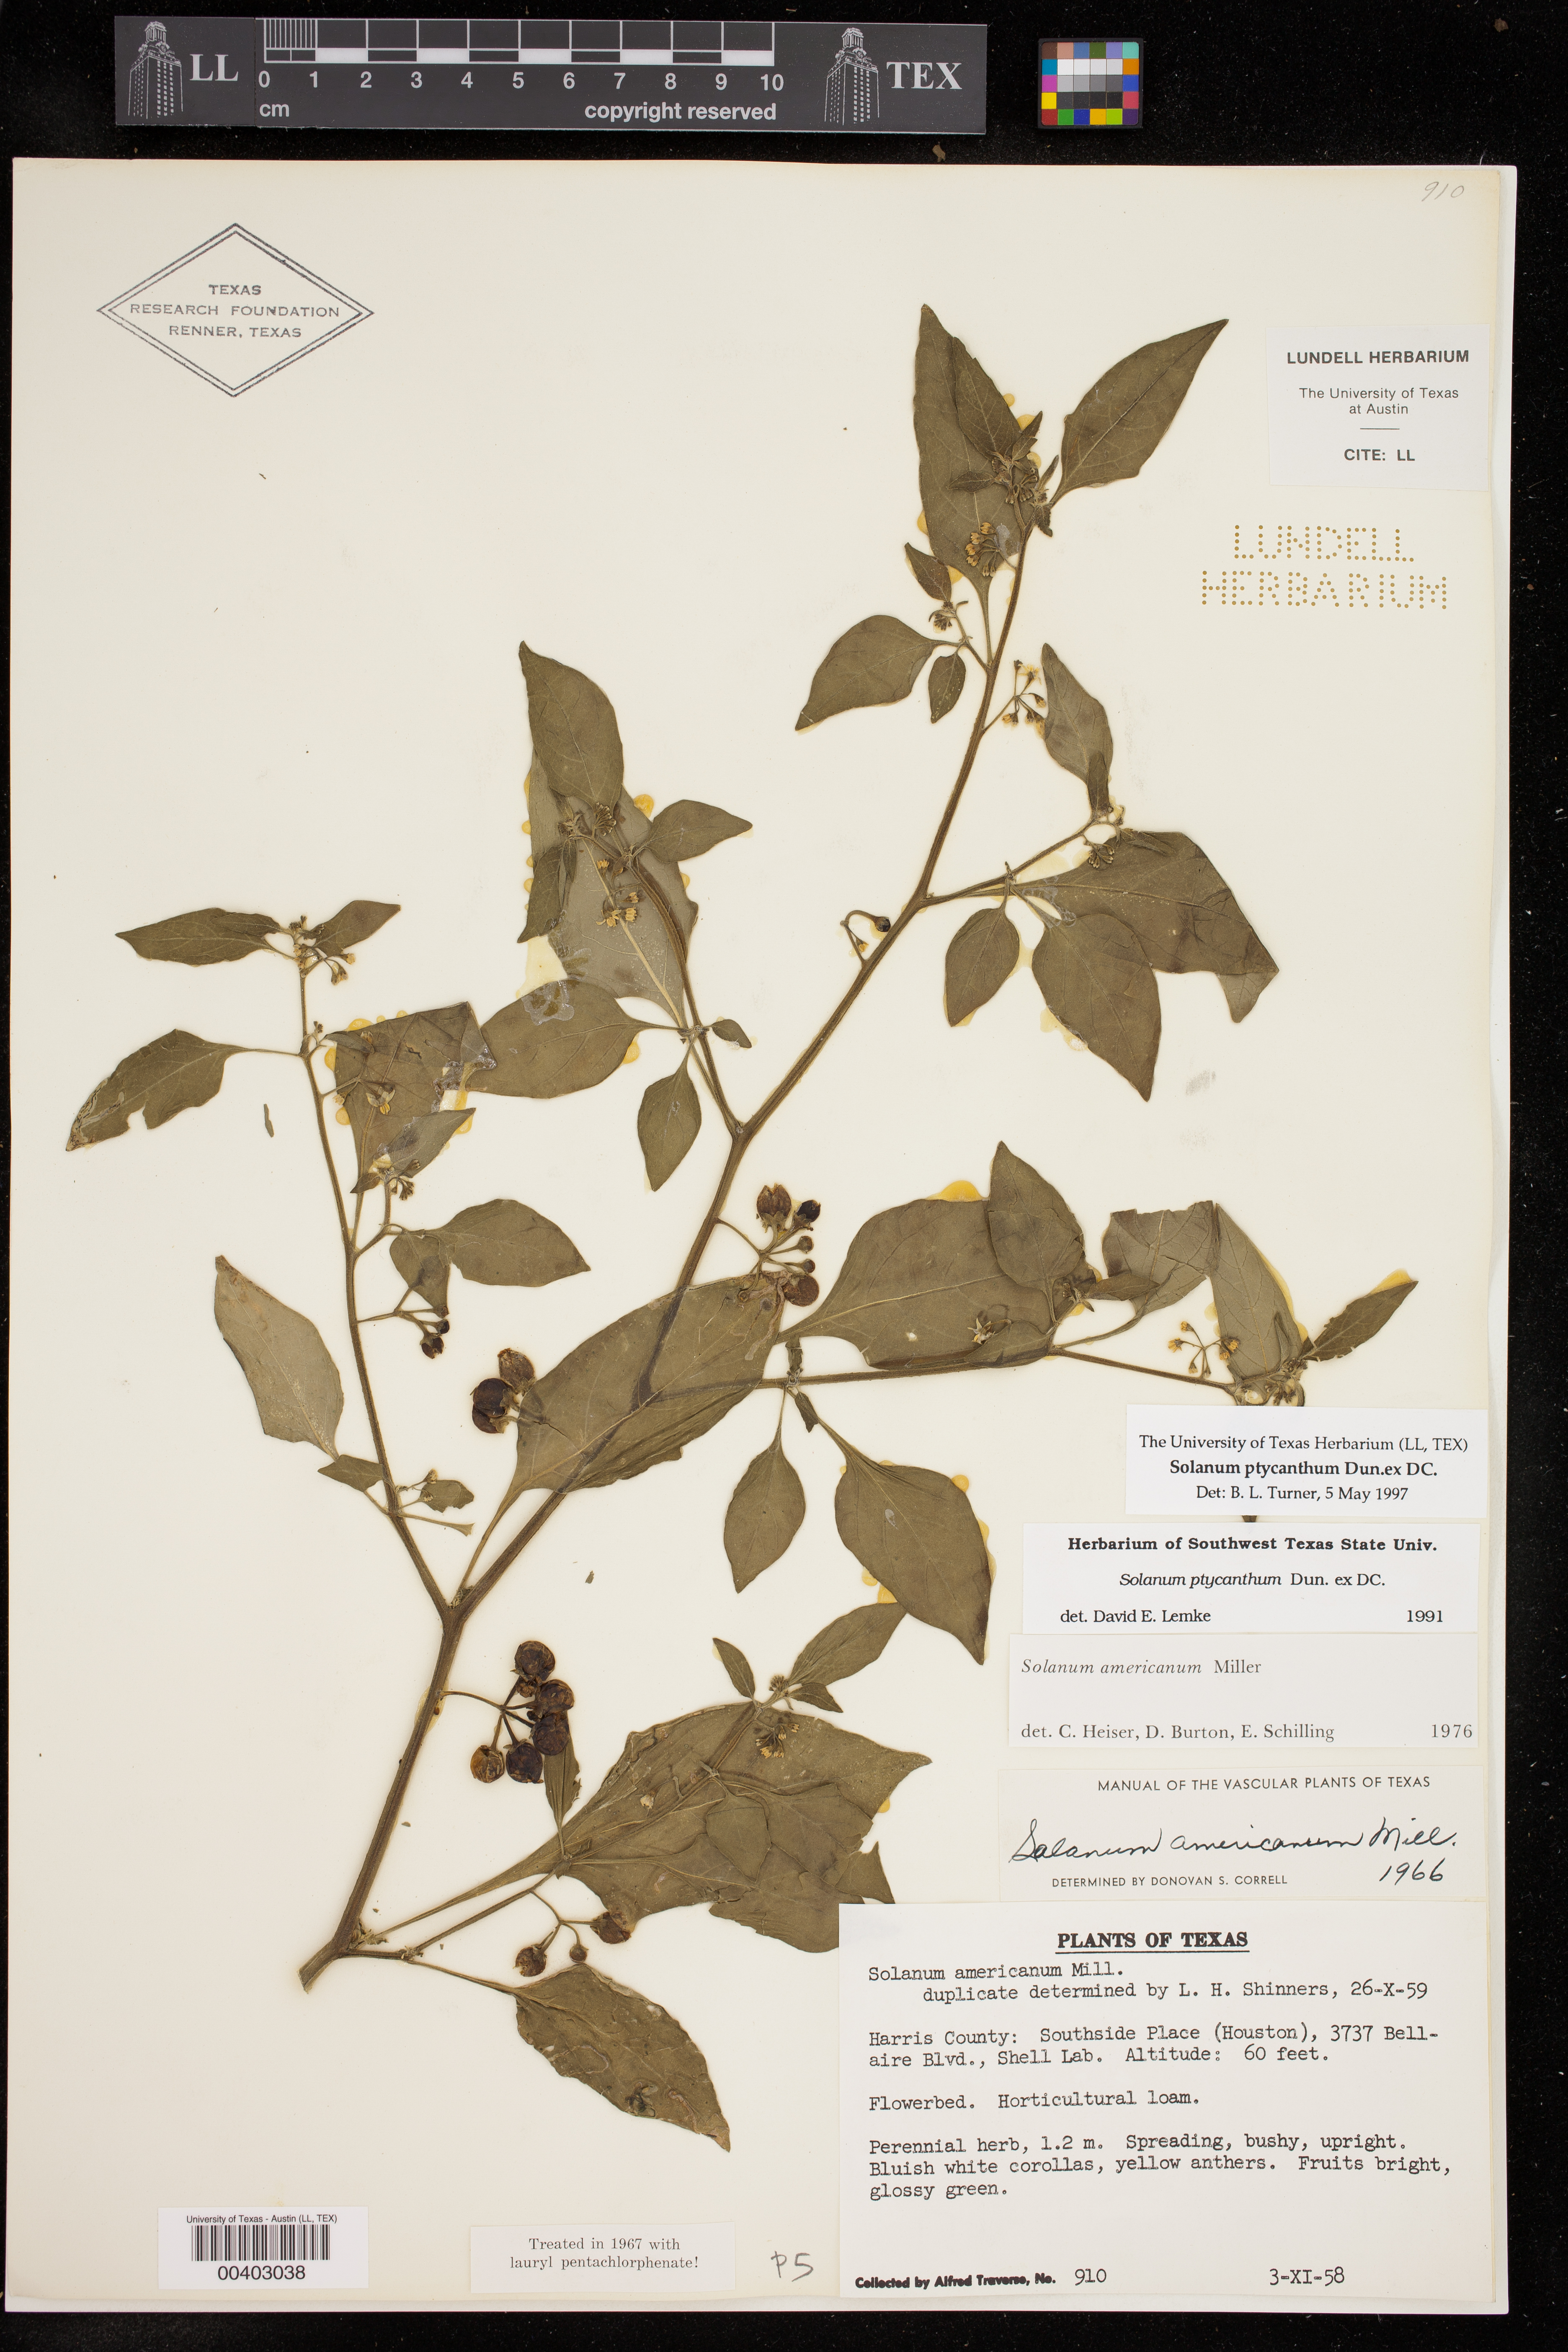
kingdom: Plantae
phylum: Tracheophyta
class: Magnoliopsida
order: Solanales
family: Solanaceae
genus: Solanum
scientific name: Solanum americanum
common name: American black nightshade
